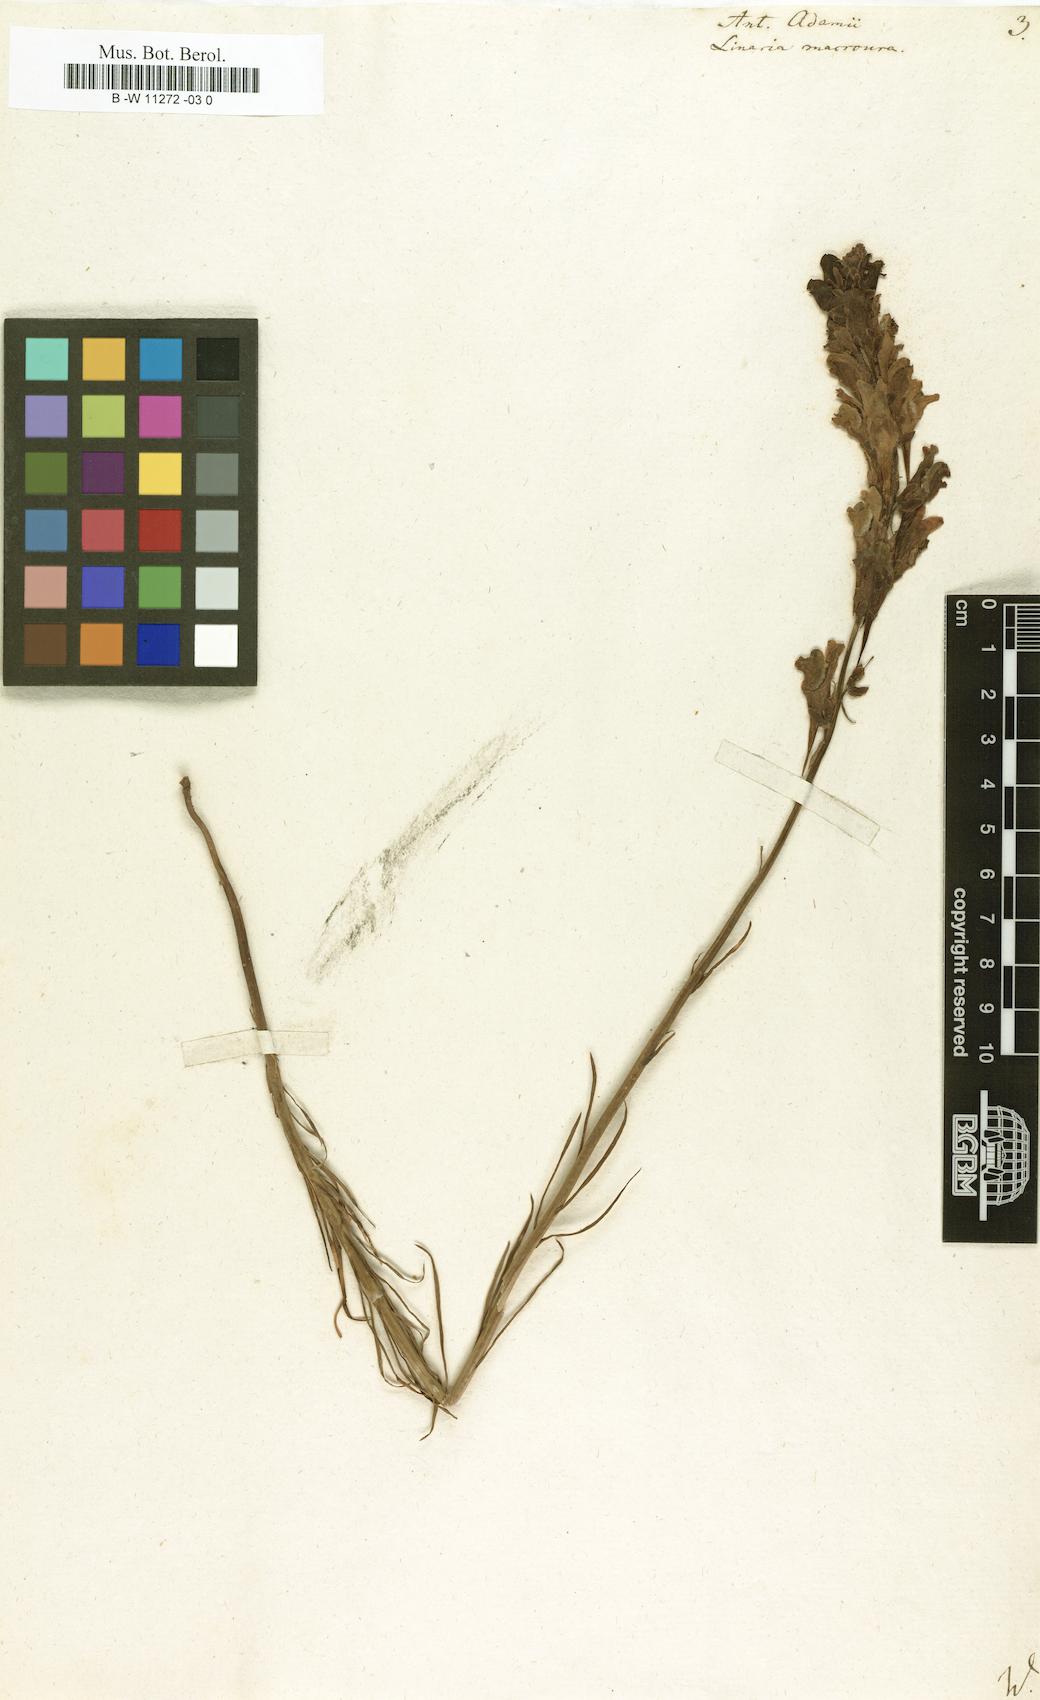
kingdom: Plantae
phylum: Tracheophyta
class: Magnoliopsida
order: Lamiales
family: Plantaginaceae
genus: Linaria
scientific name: Linaria macroura
